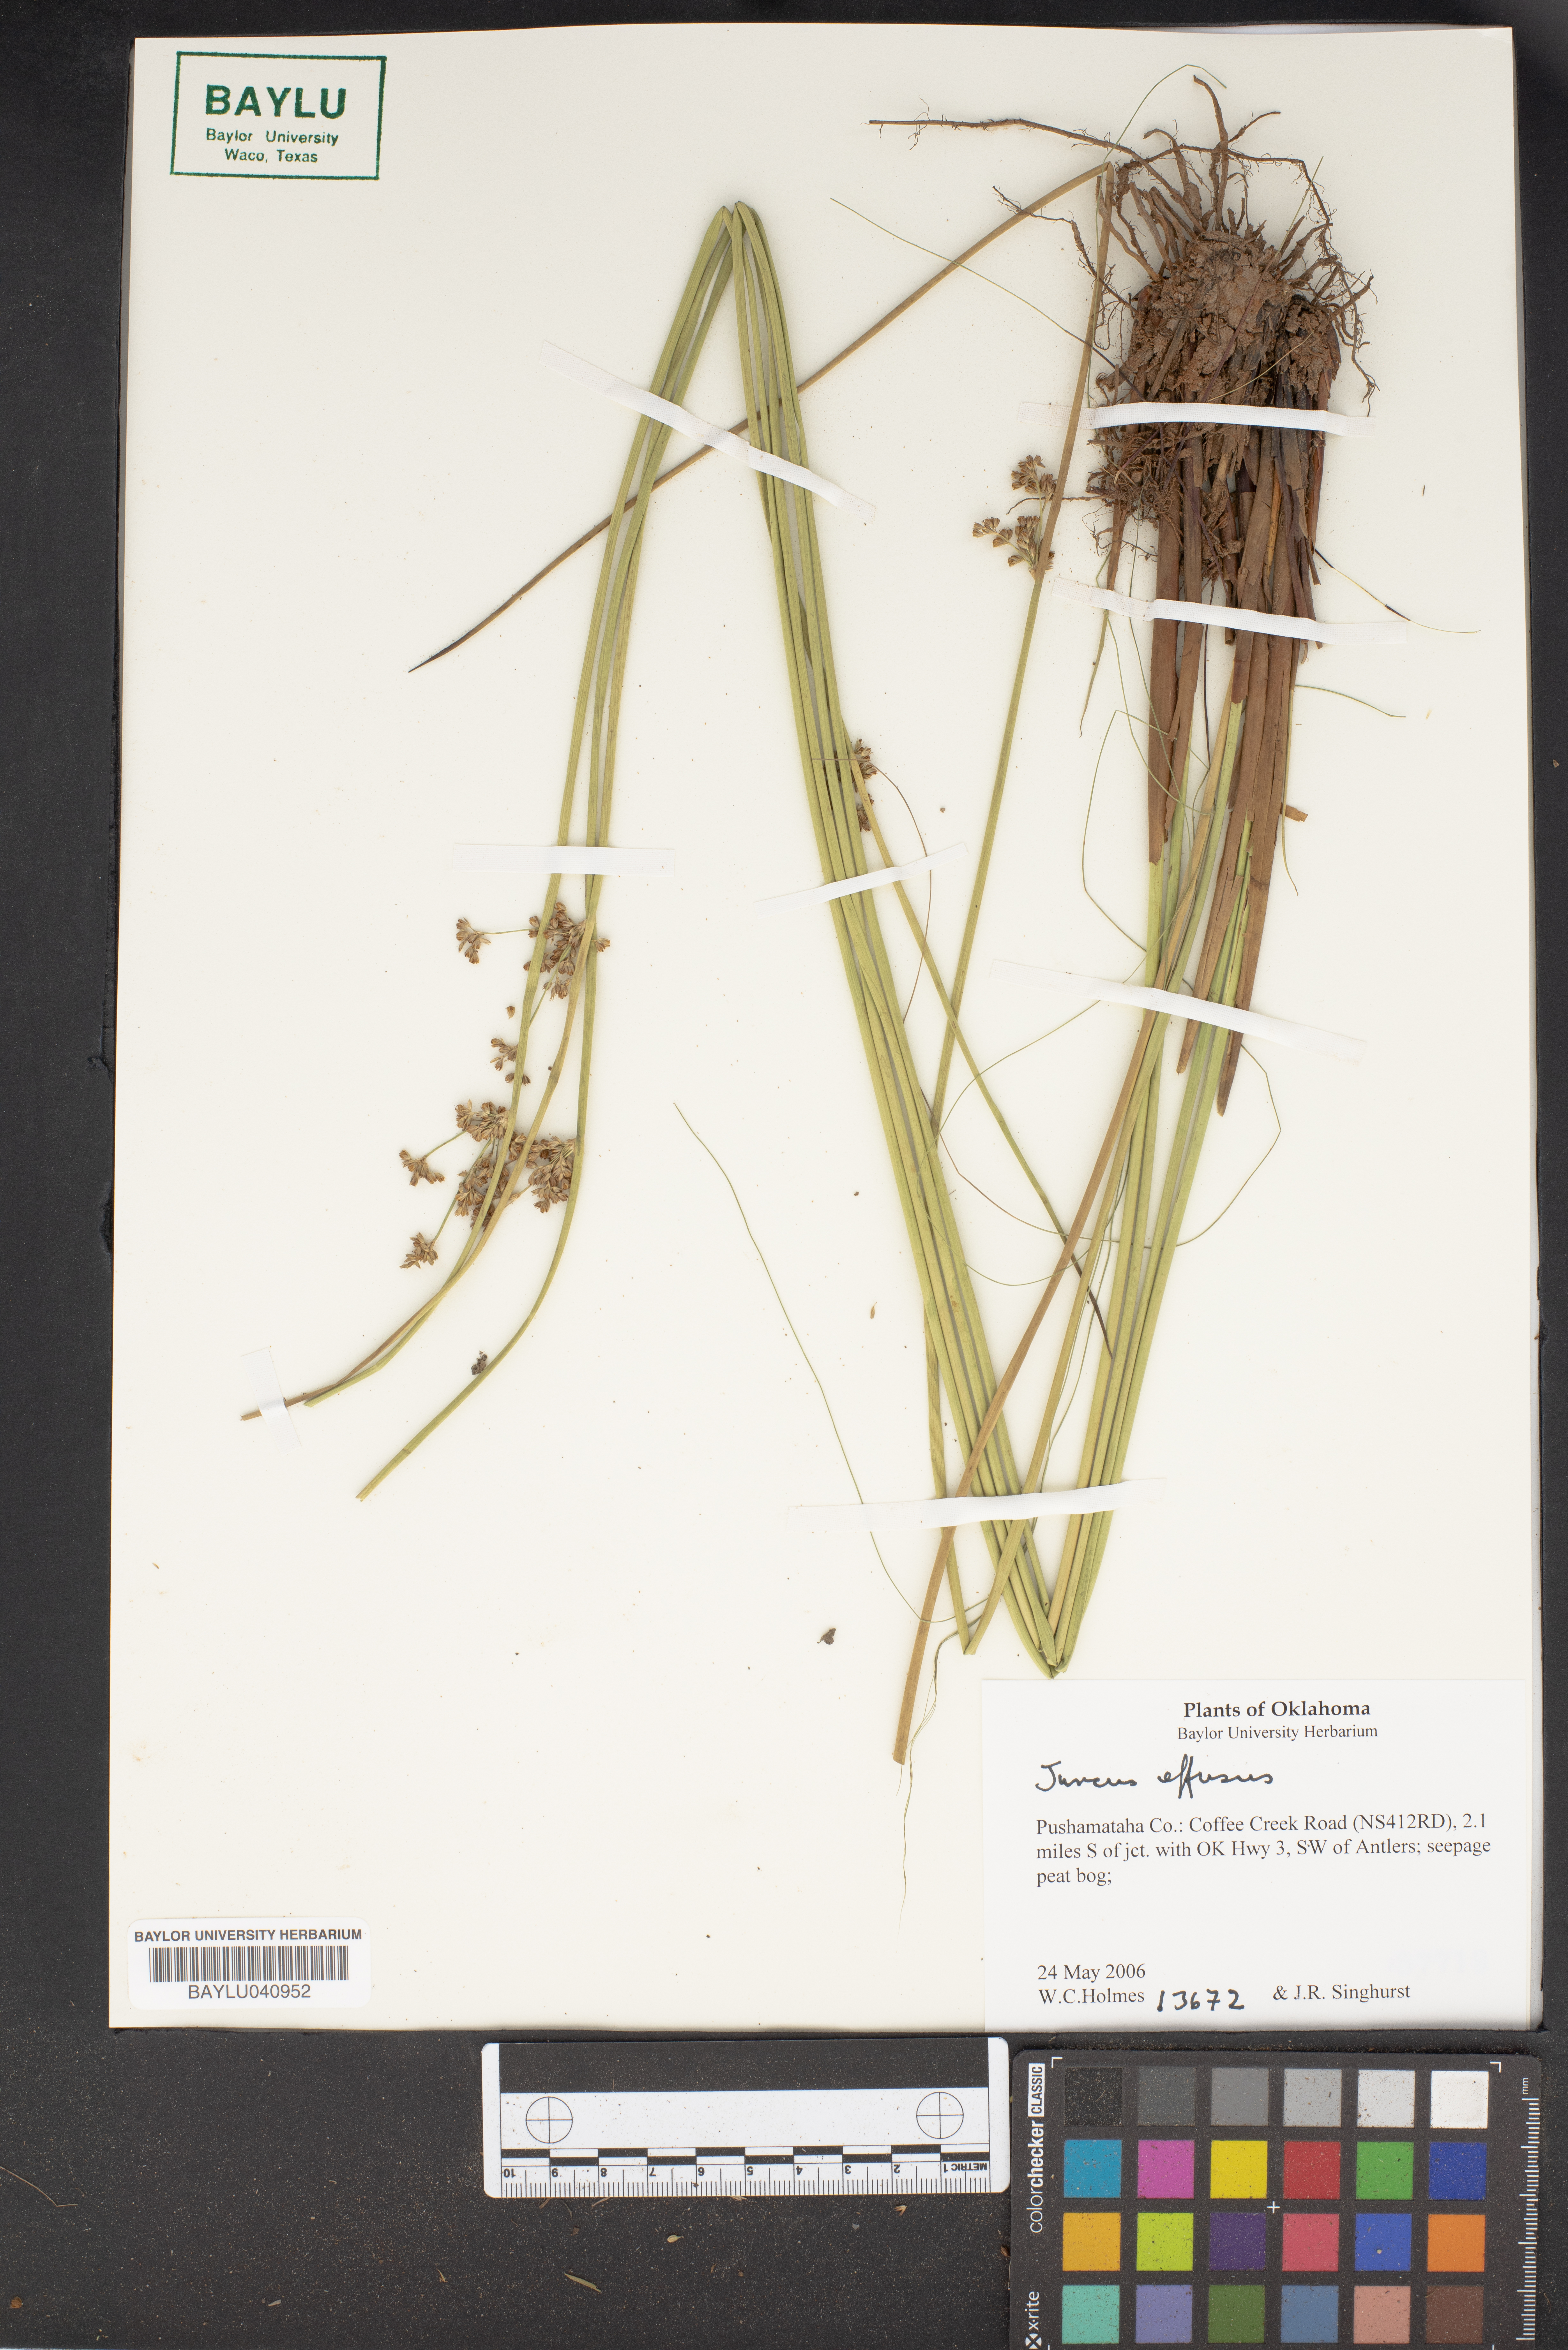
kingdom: Plantae
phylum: Tracheophyta
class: Liliopsida
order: Poales
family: Juncaceae
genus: Juncus
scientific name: Juncus effusus
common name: Soft rush
